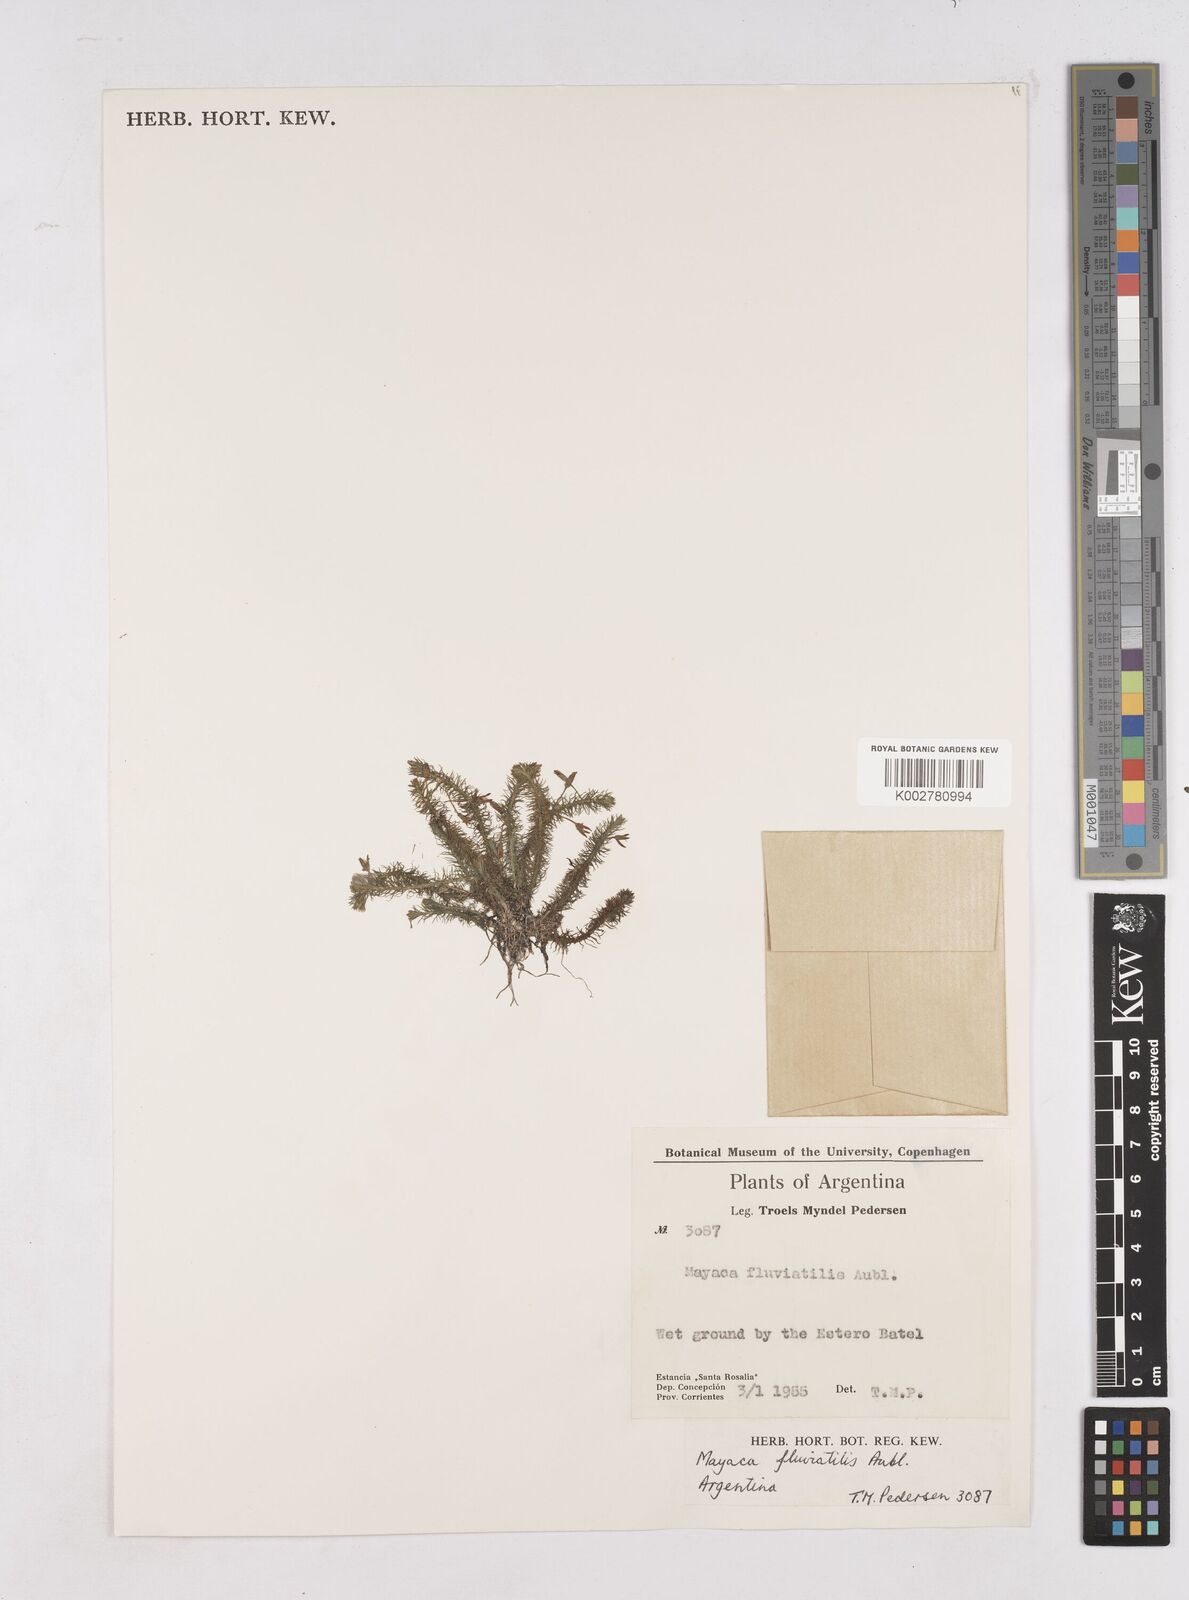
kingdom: Plantae
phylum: Tracheophyta
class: Liliopsida
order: Poales
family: Mayacaceae
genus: Mayaca
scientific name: Mayaca fluviatilis
